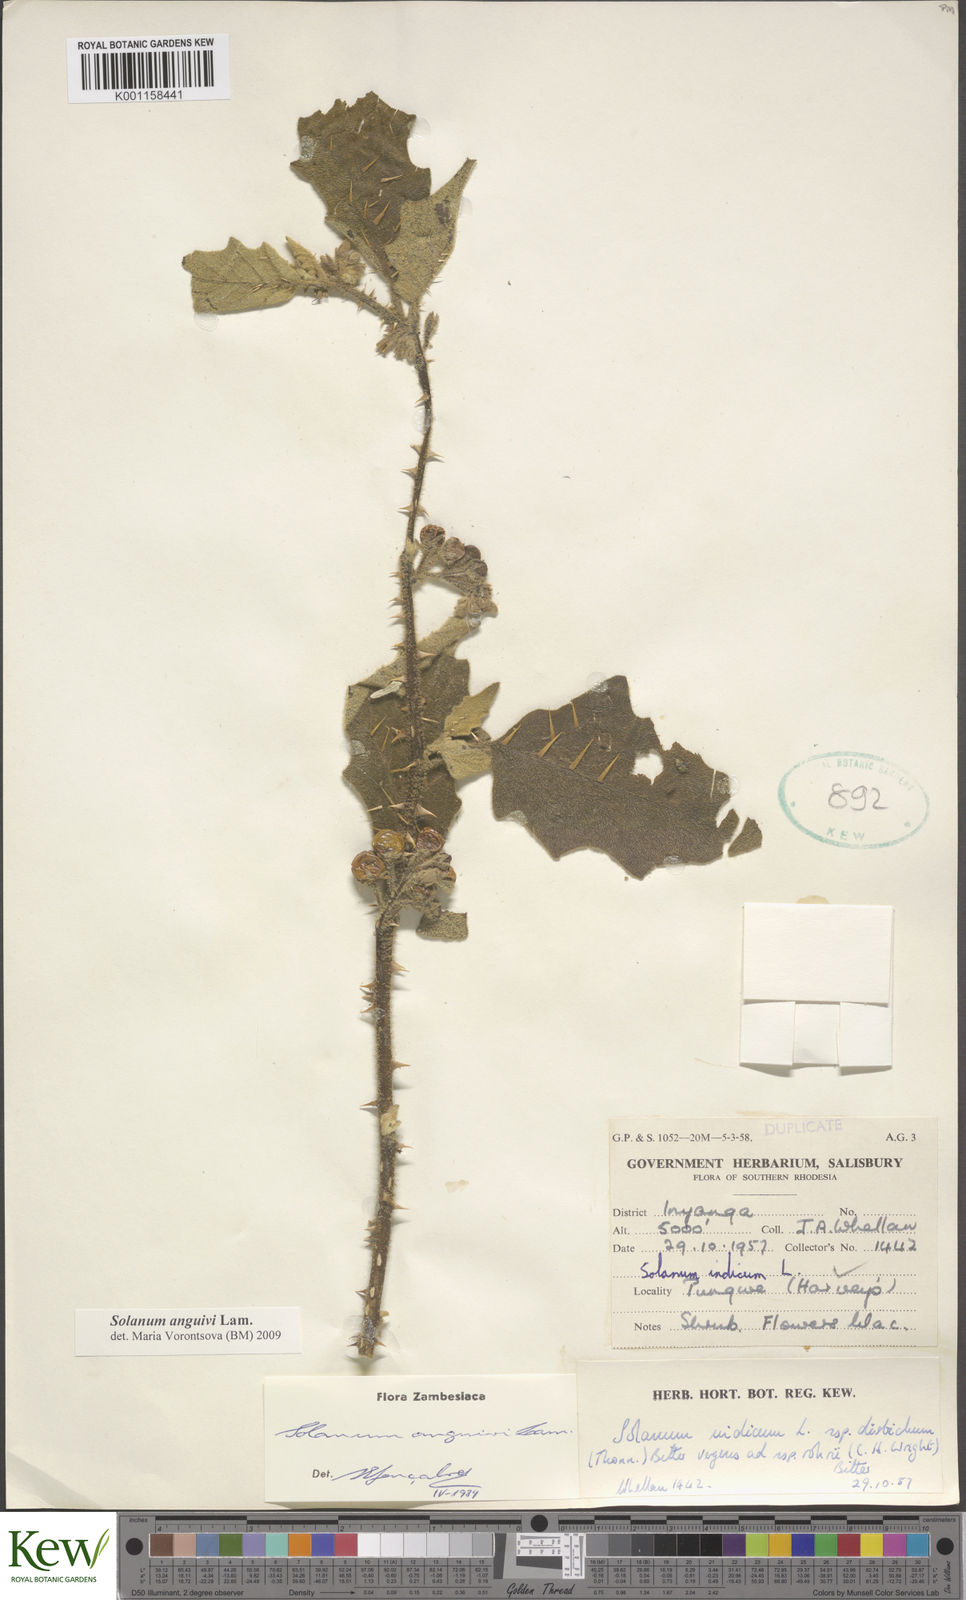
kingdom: Plantae
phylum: Tracheophyta
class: Magnoliopsida
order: Solanales
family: Solanaceae
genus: Solanum
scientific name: Solanum anguivi
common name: Forest bitterberry
